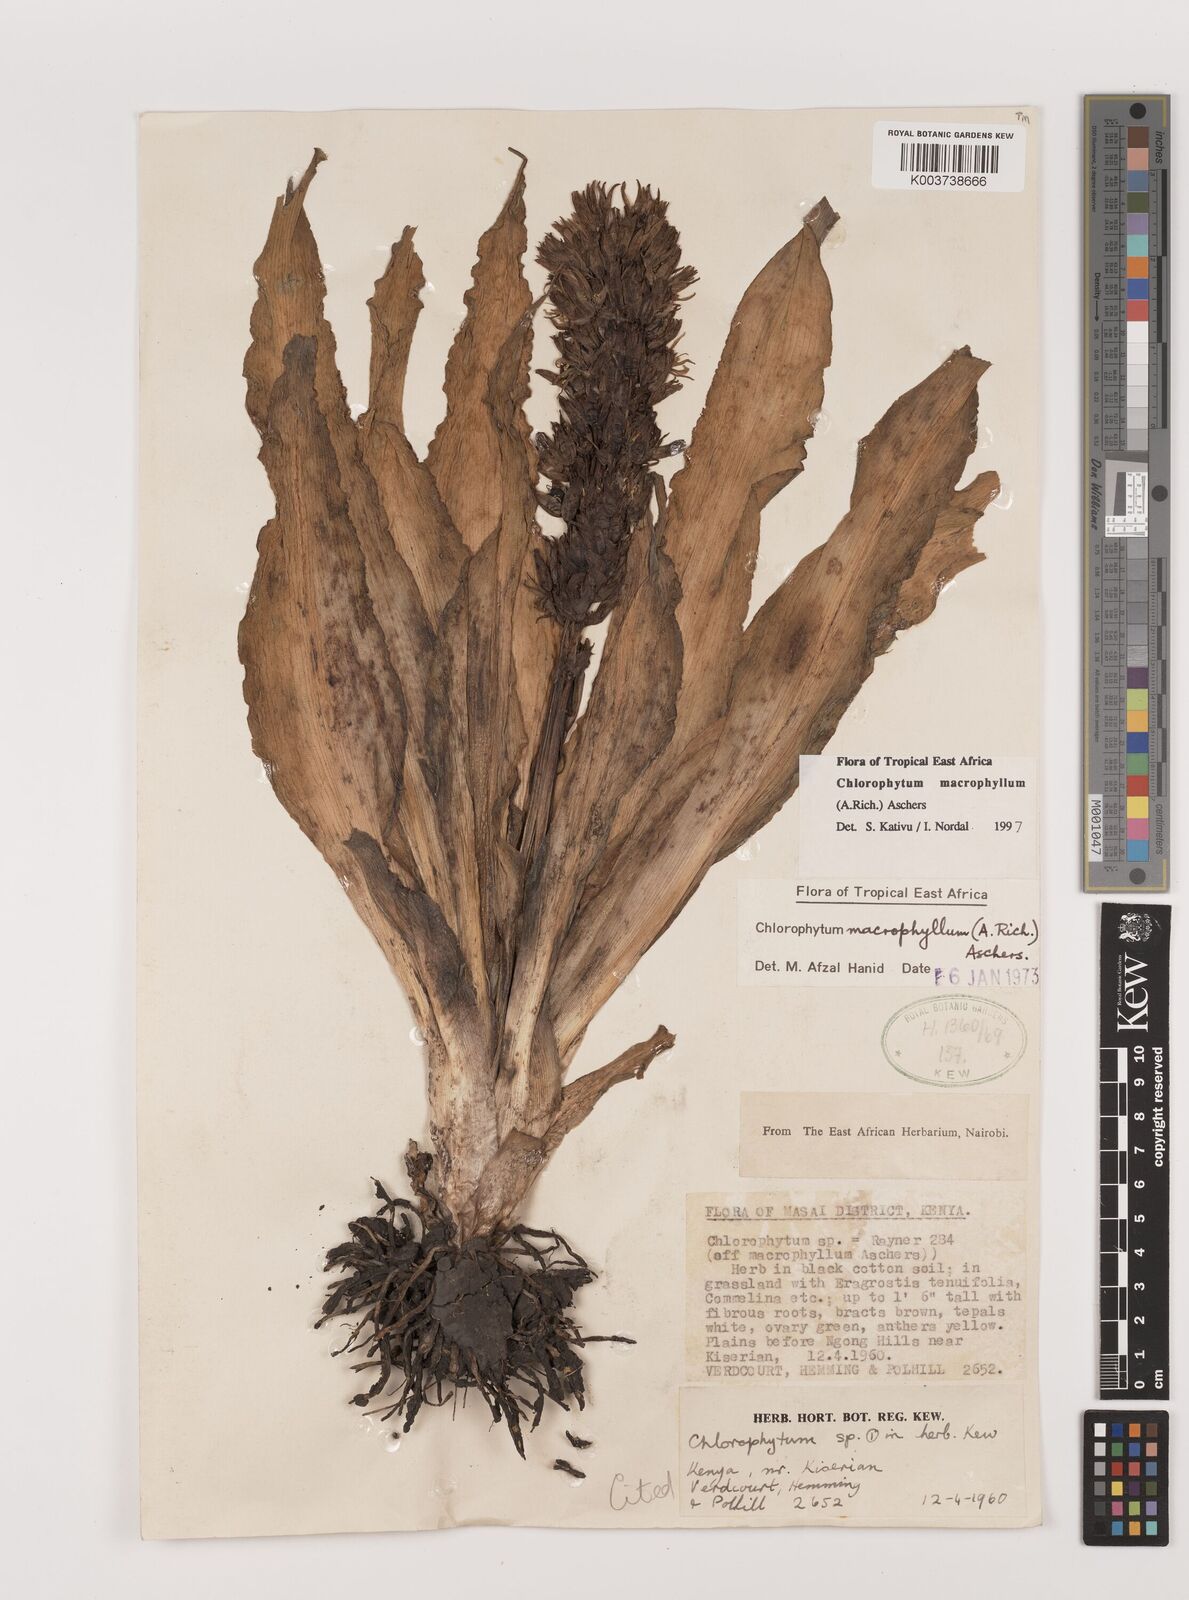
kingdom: Plantae
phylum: Tracheophyta
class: Liliopsida
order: Asparagales
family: Asparagaceae
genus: Chlorophytum
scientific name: Chlorophytum macrophyllum
